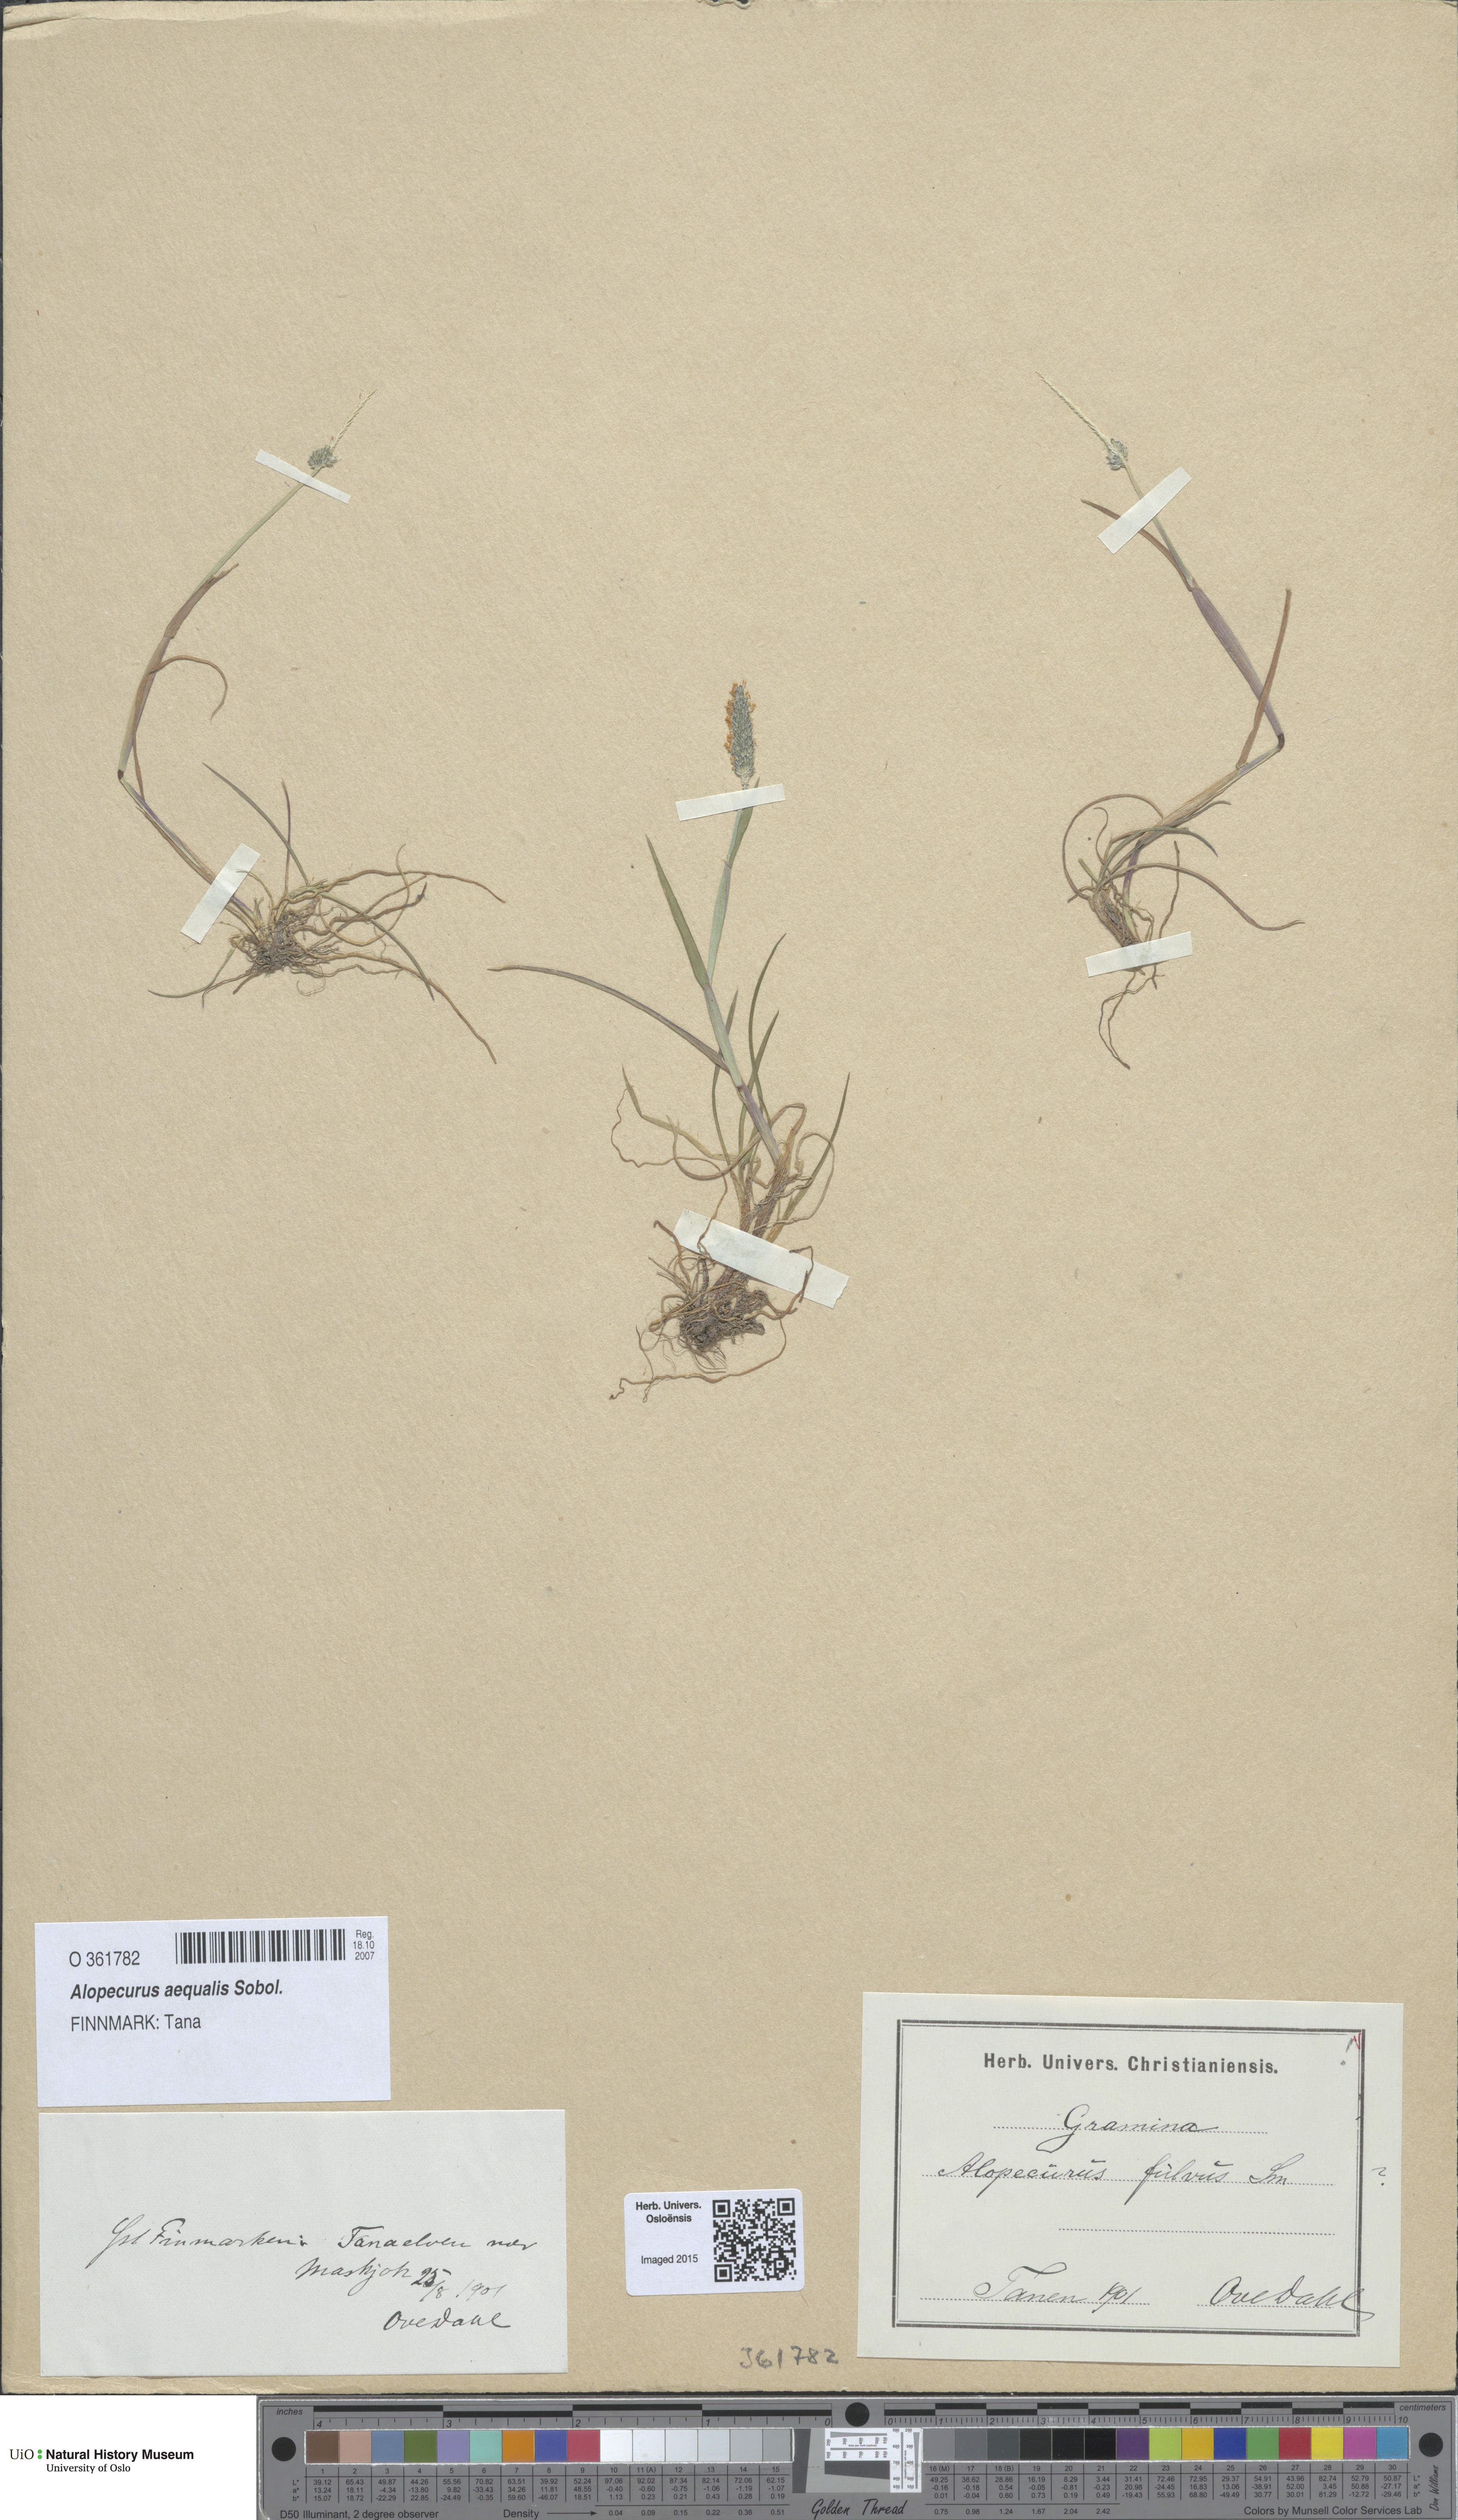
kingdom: Plantae
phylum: Tracheophyta
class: Liliopsida
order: Poales
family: Poaceae
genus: Alopecurus
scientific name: Alopecurus aequalis
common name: Orange foxtail
